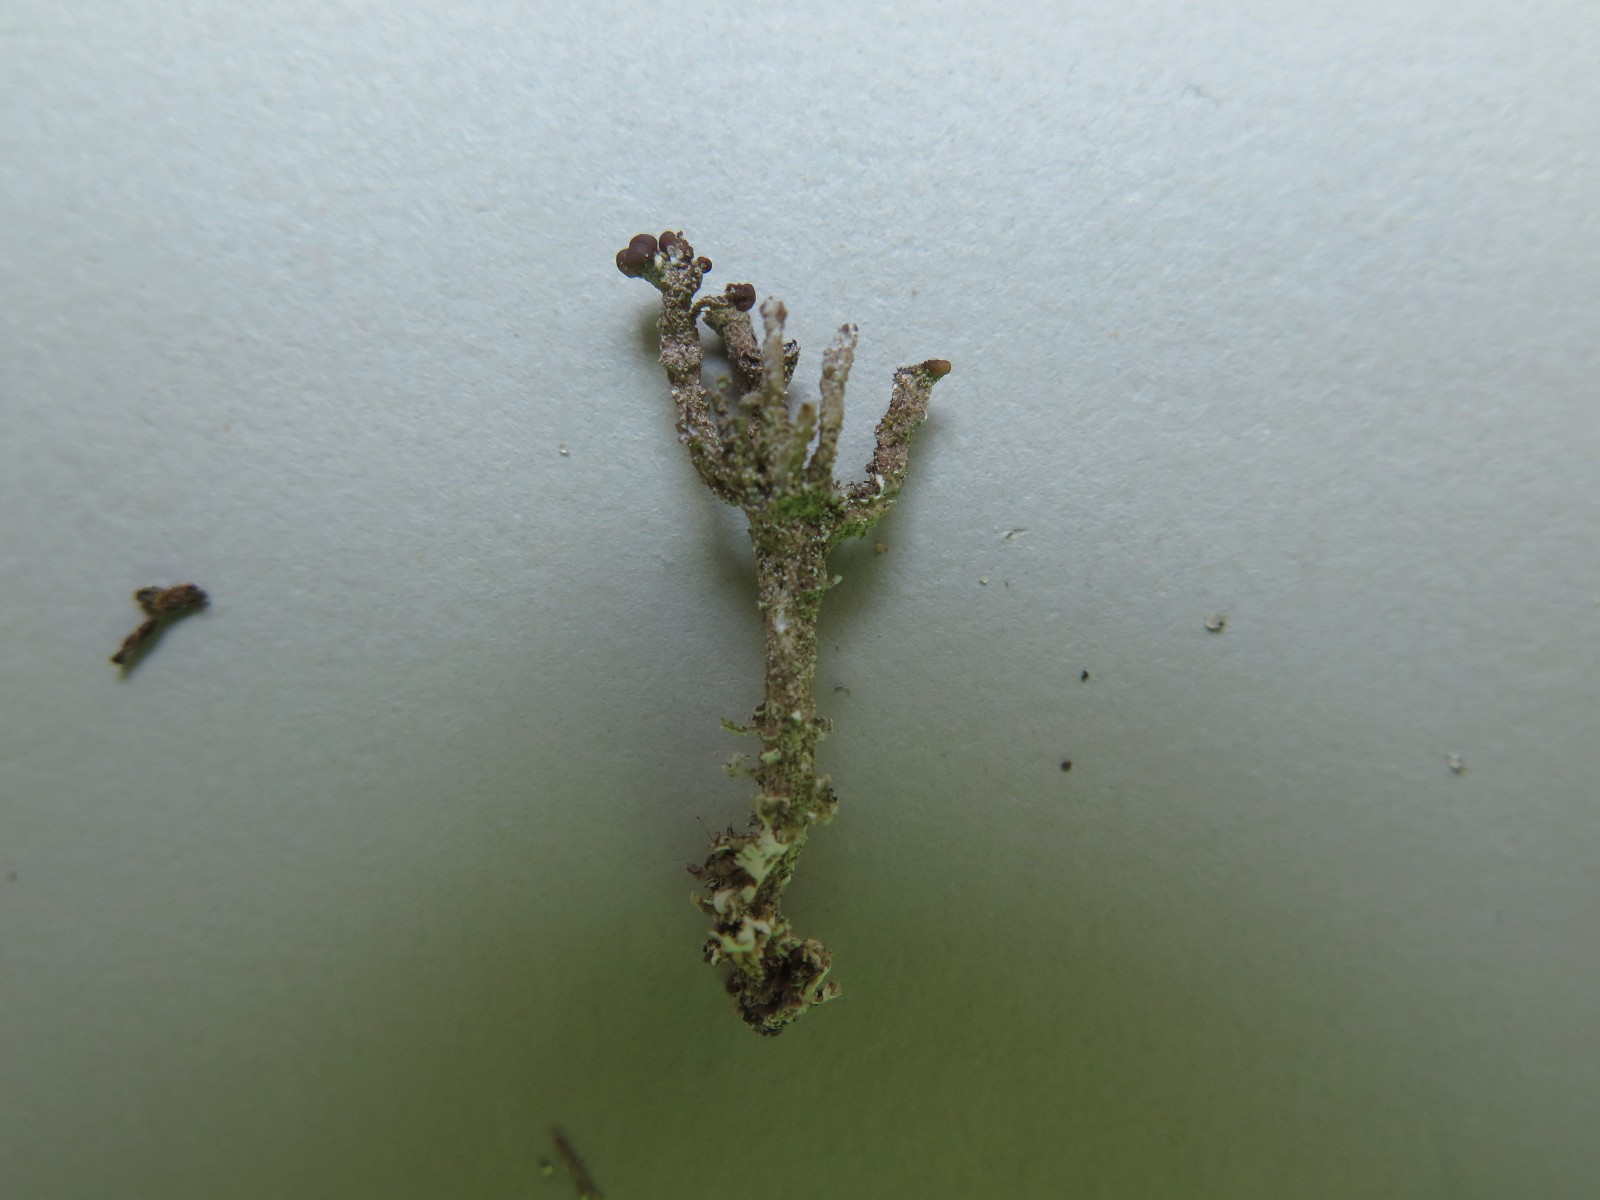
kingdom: Fungi
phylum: Ascomycota
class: Lecanoromycetes
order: Lecanorales
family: Cladoniaceae
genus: Cladonia
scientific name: Cladonia ramulosa
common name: kliddet bægerlav
